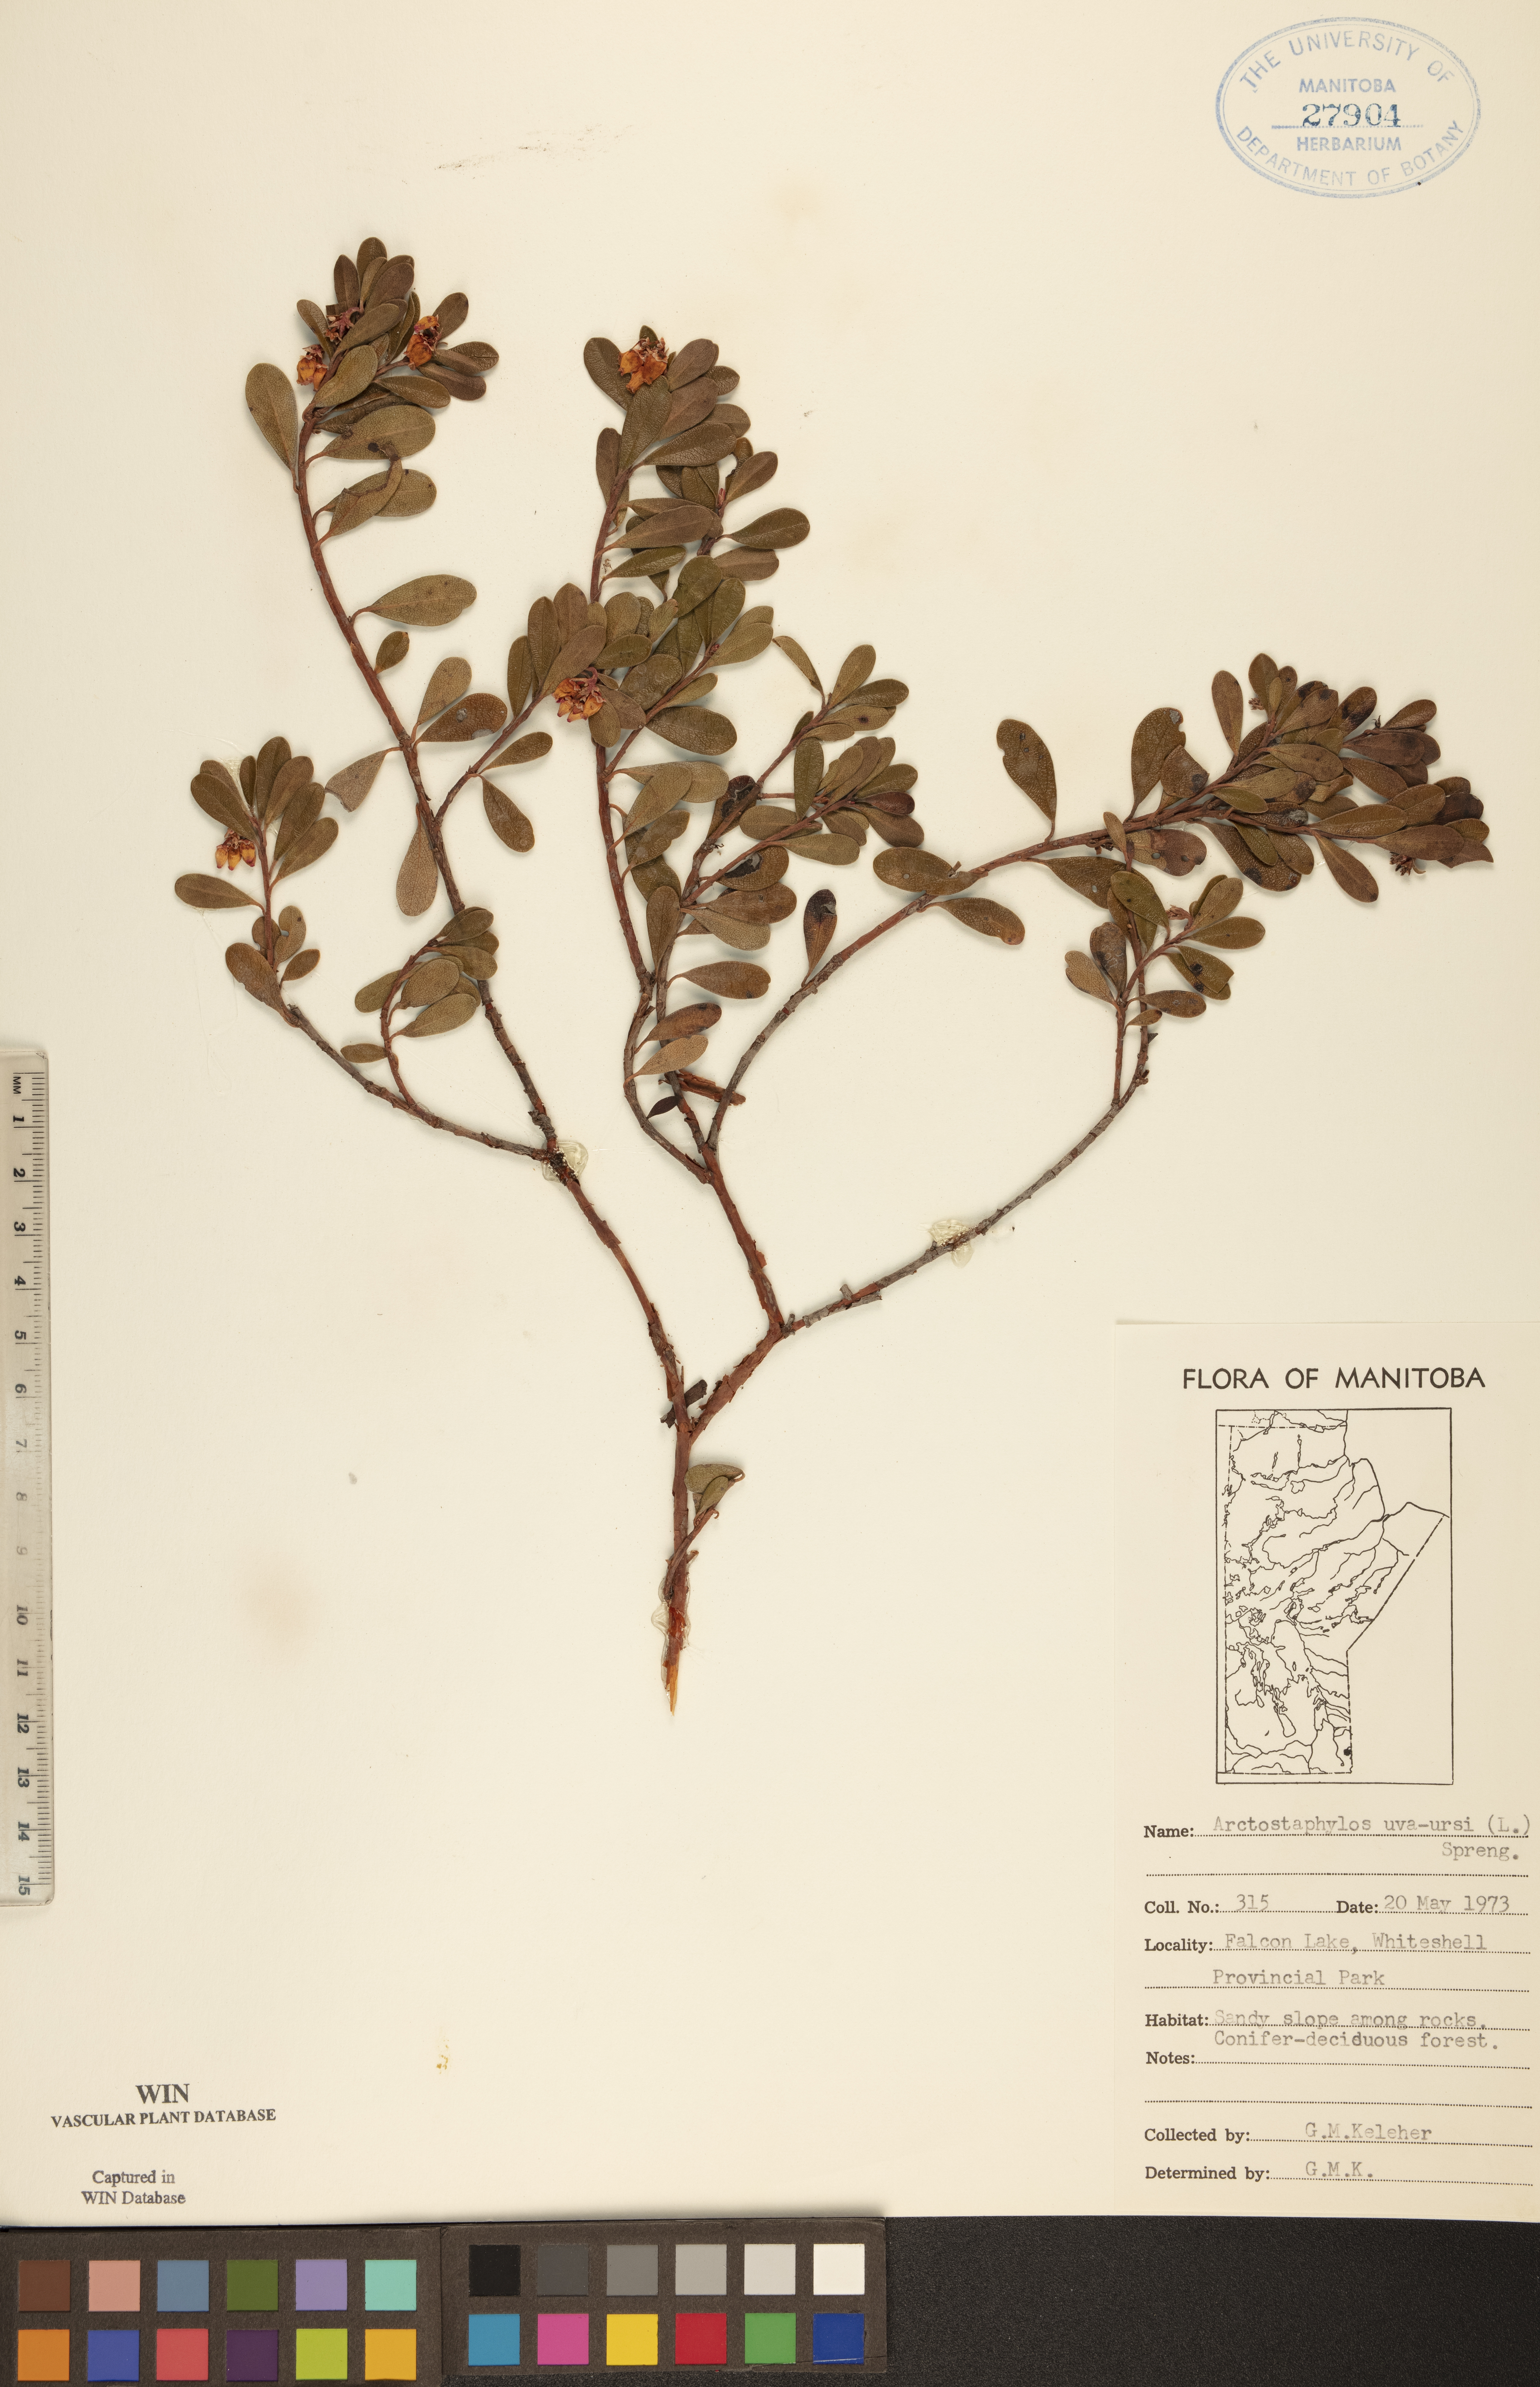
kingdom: Plantae
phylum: Tracheophyta
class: Magnoliopsida
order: Ericales
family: Ericaceae
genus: Arctostaphylos
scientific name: Arctostaphylos uva-ursi
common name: Bearberry
